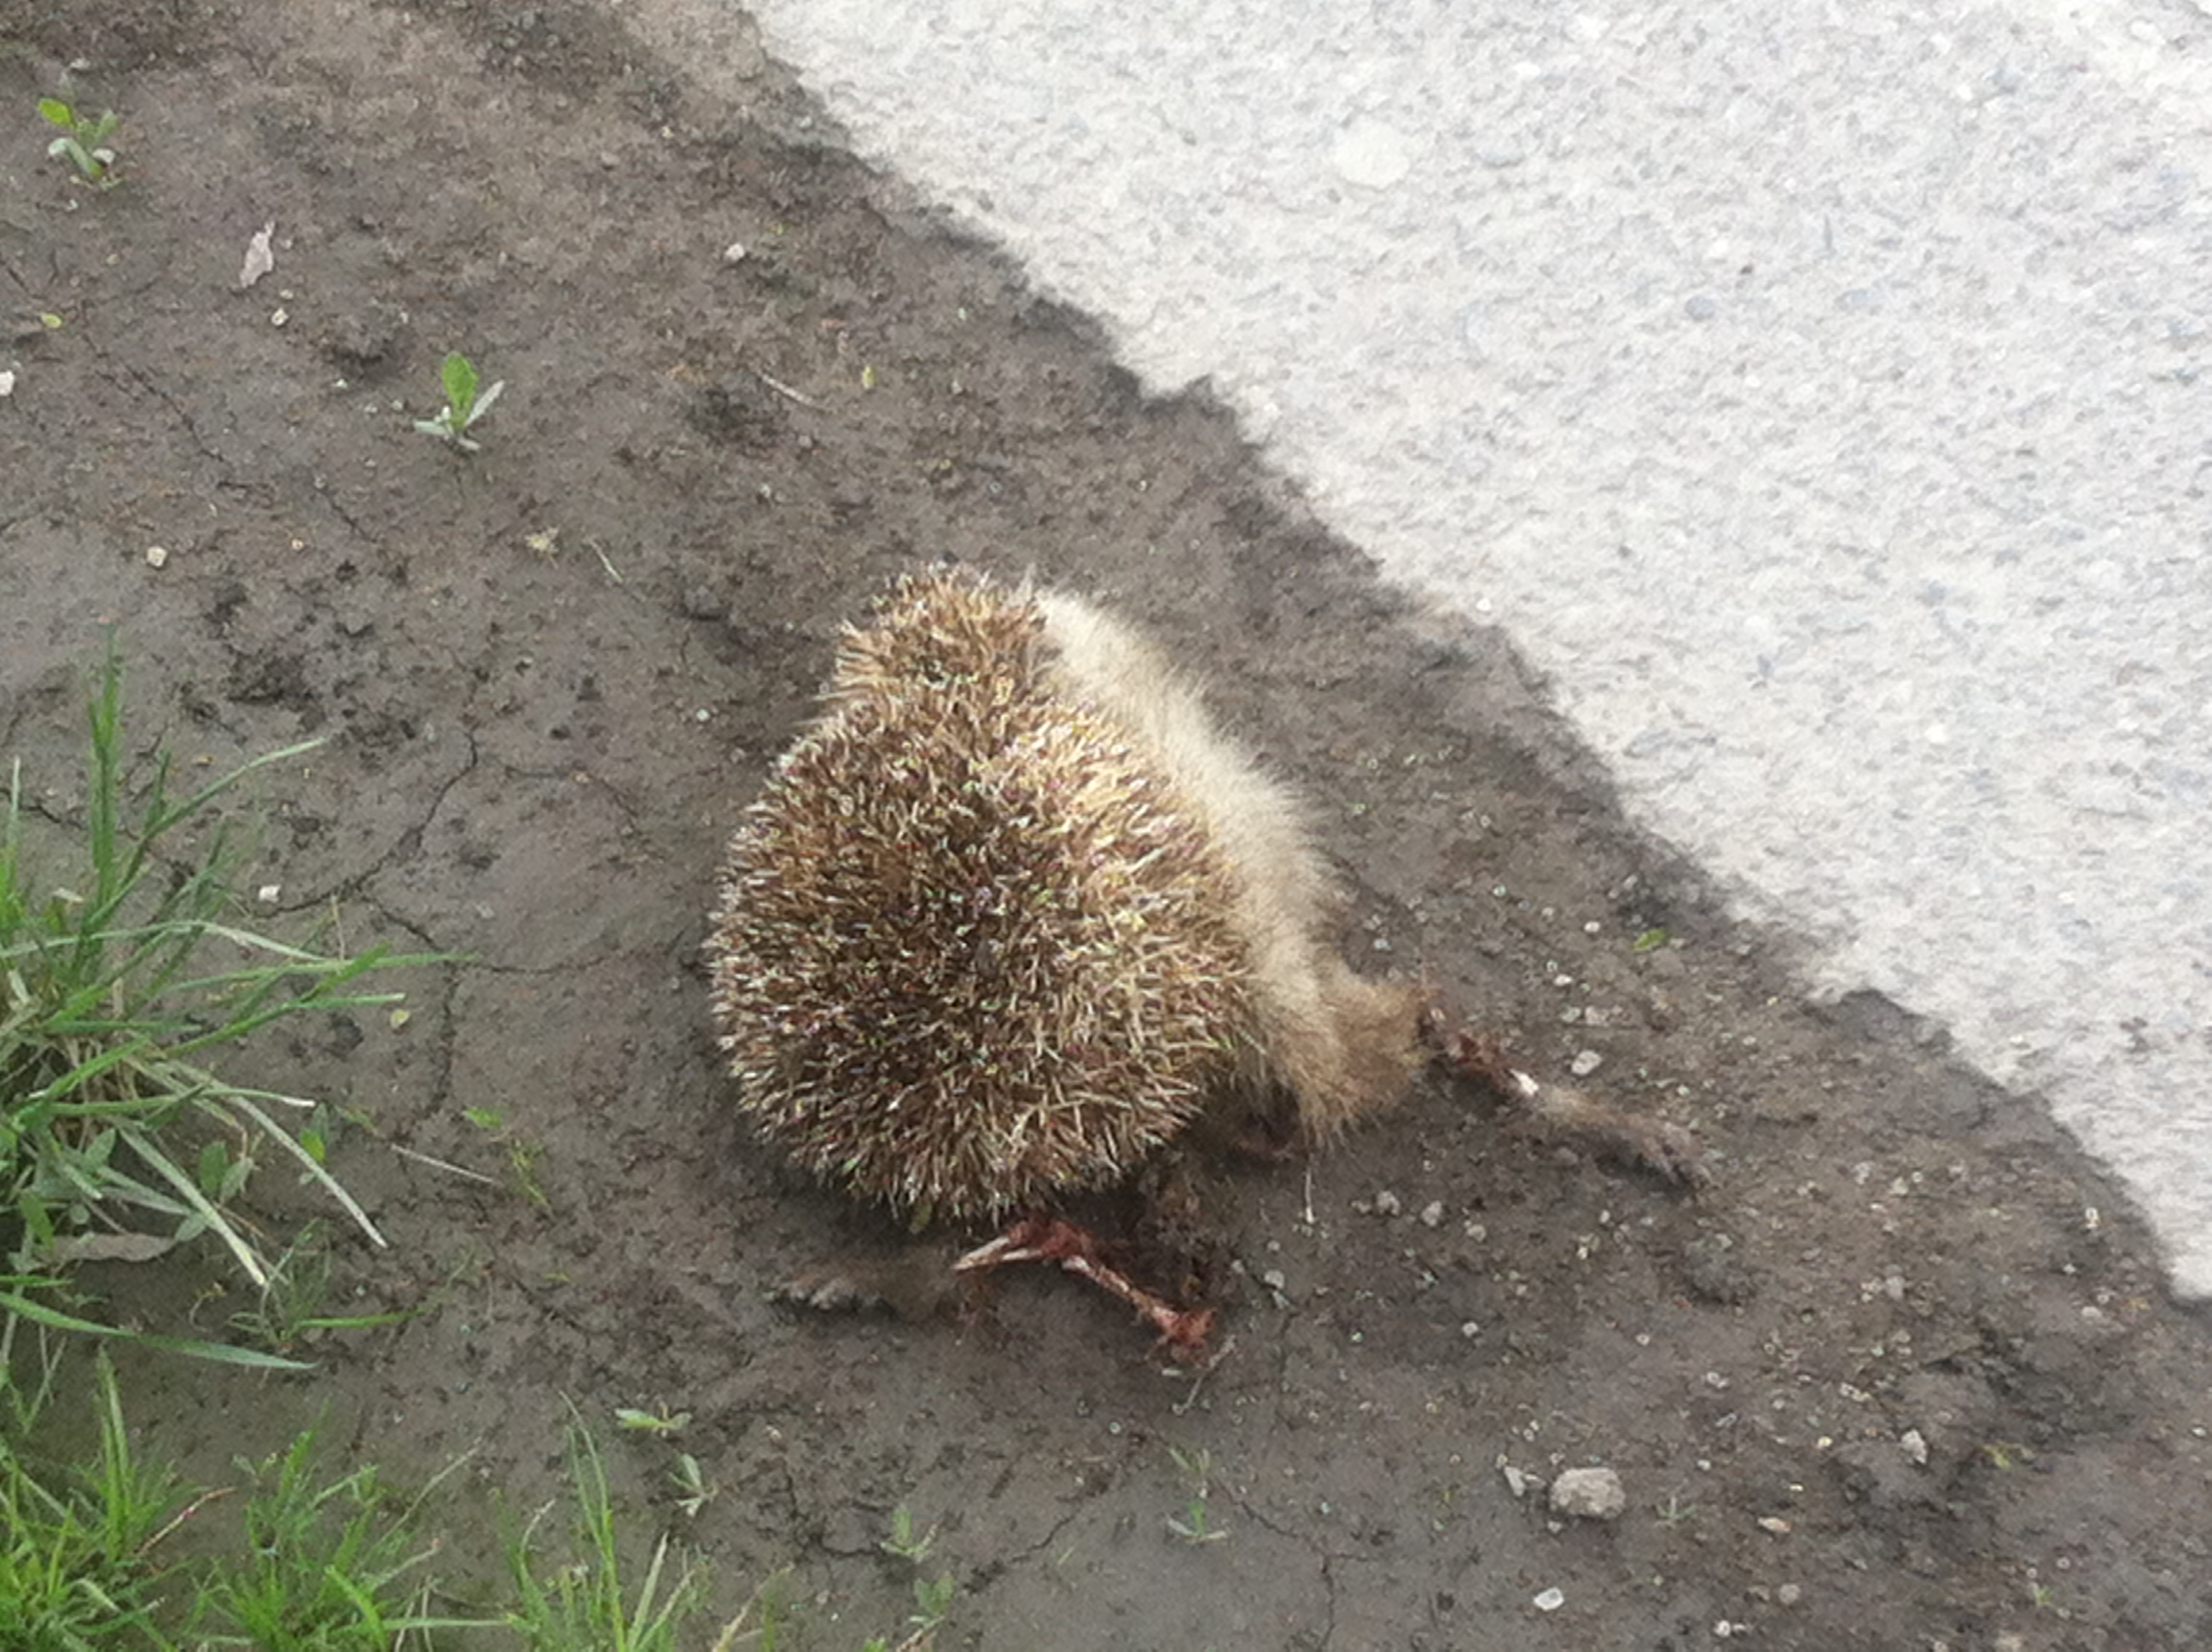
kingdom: Animalia
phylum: Chordata
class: Mammalia
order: Erinaceomorpha
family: Erinaceidae
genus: Erinaceus
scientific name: Erinaceus
